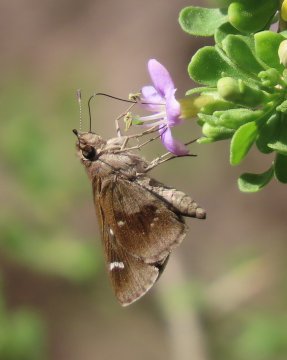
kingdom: Animalia
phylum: Arthropoda
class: Insecta
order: Lepidoptera
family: Hesperiidae
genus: Lerodea
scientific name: Lerodea arabus
